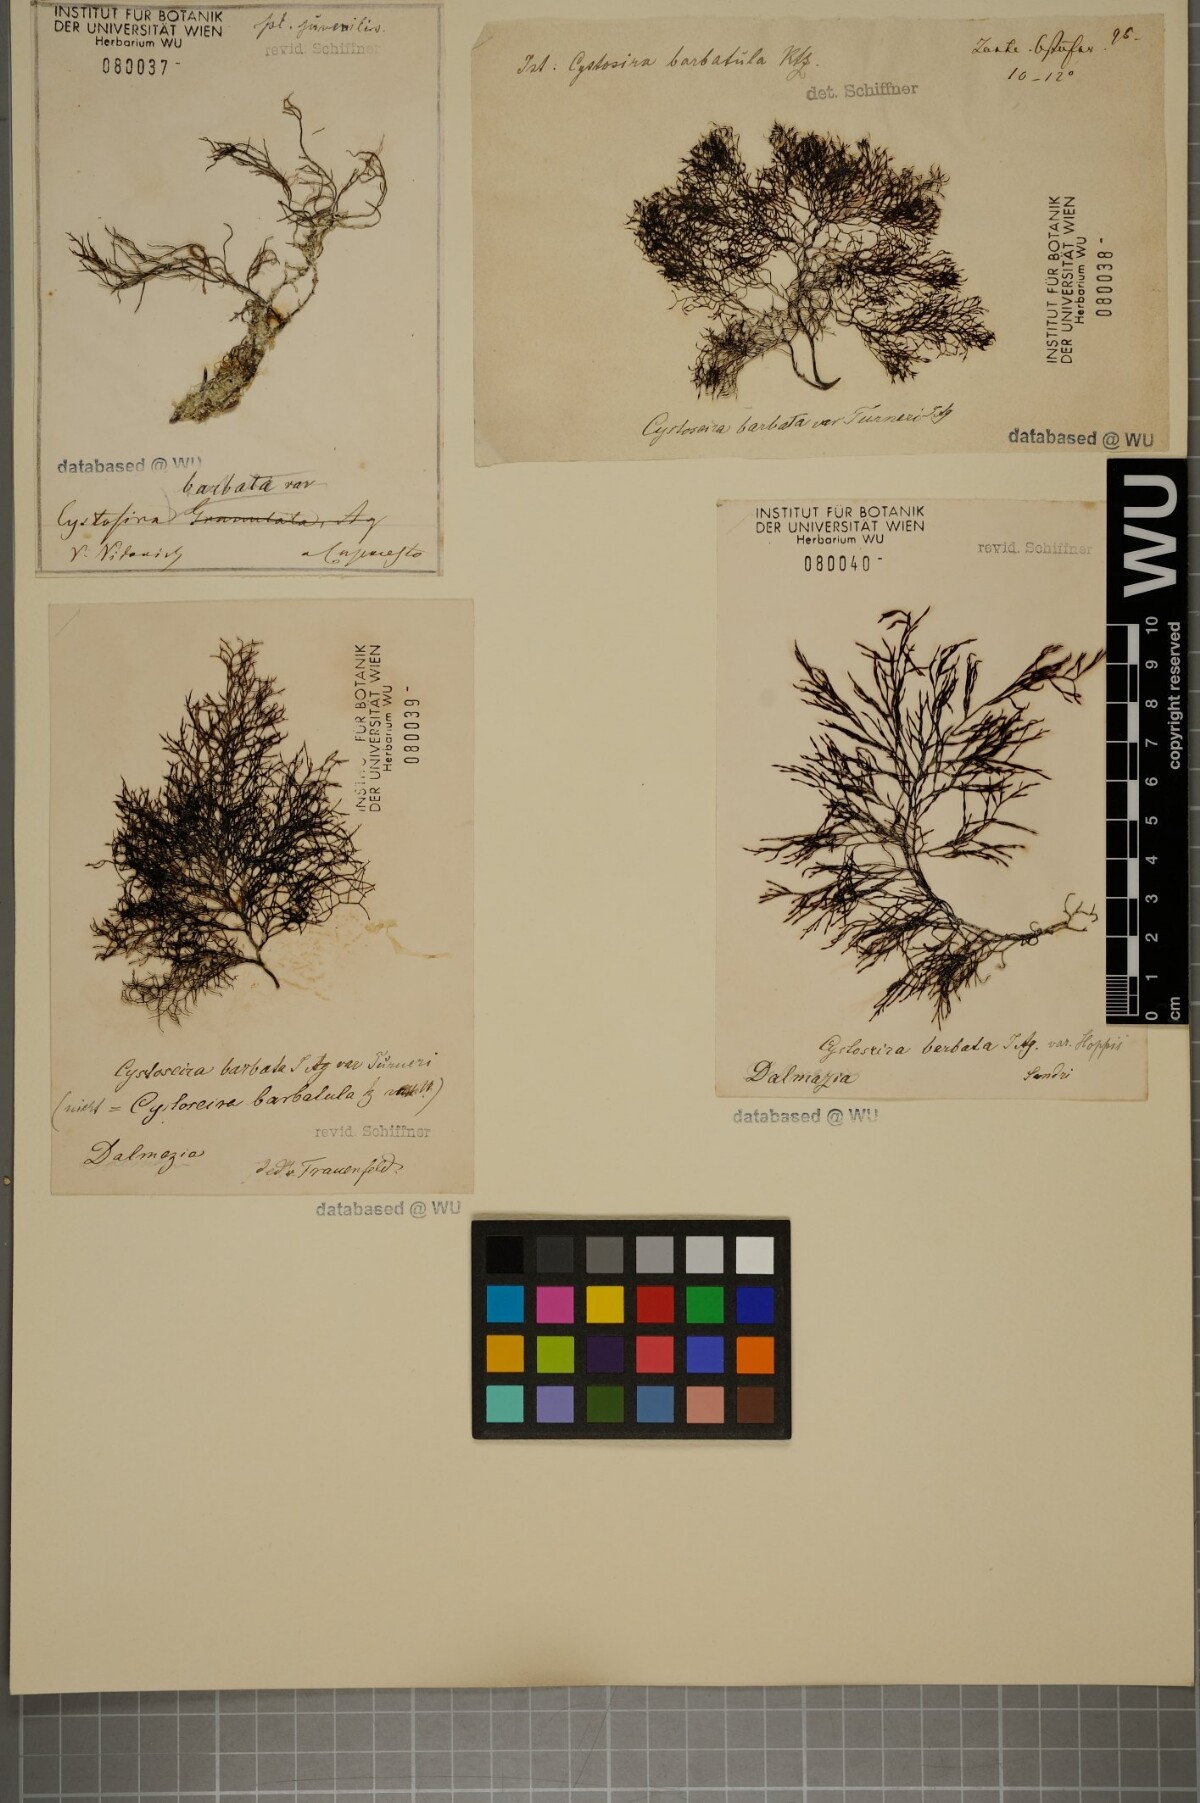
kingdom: Chromista
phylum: Ochrophyta
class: Phaeophyceae
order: Fucales
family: Sargassaceae
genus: Cystoseira
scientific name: Cystoseira Gongolaria barbata
